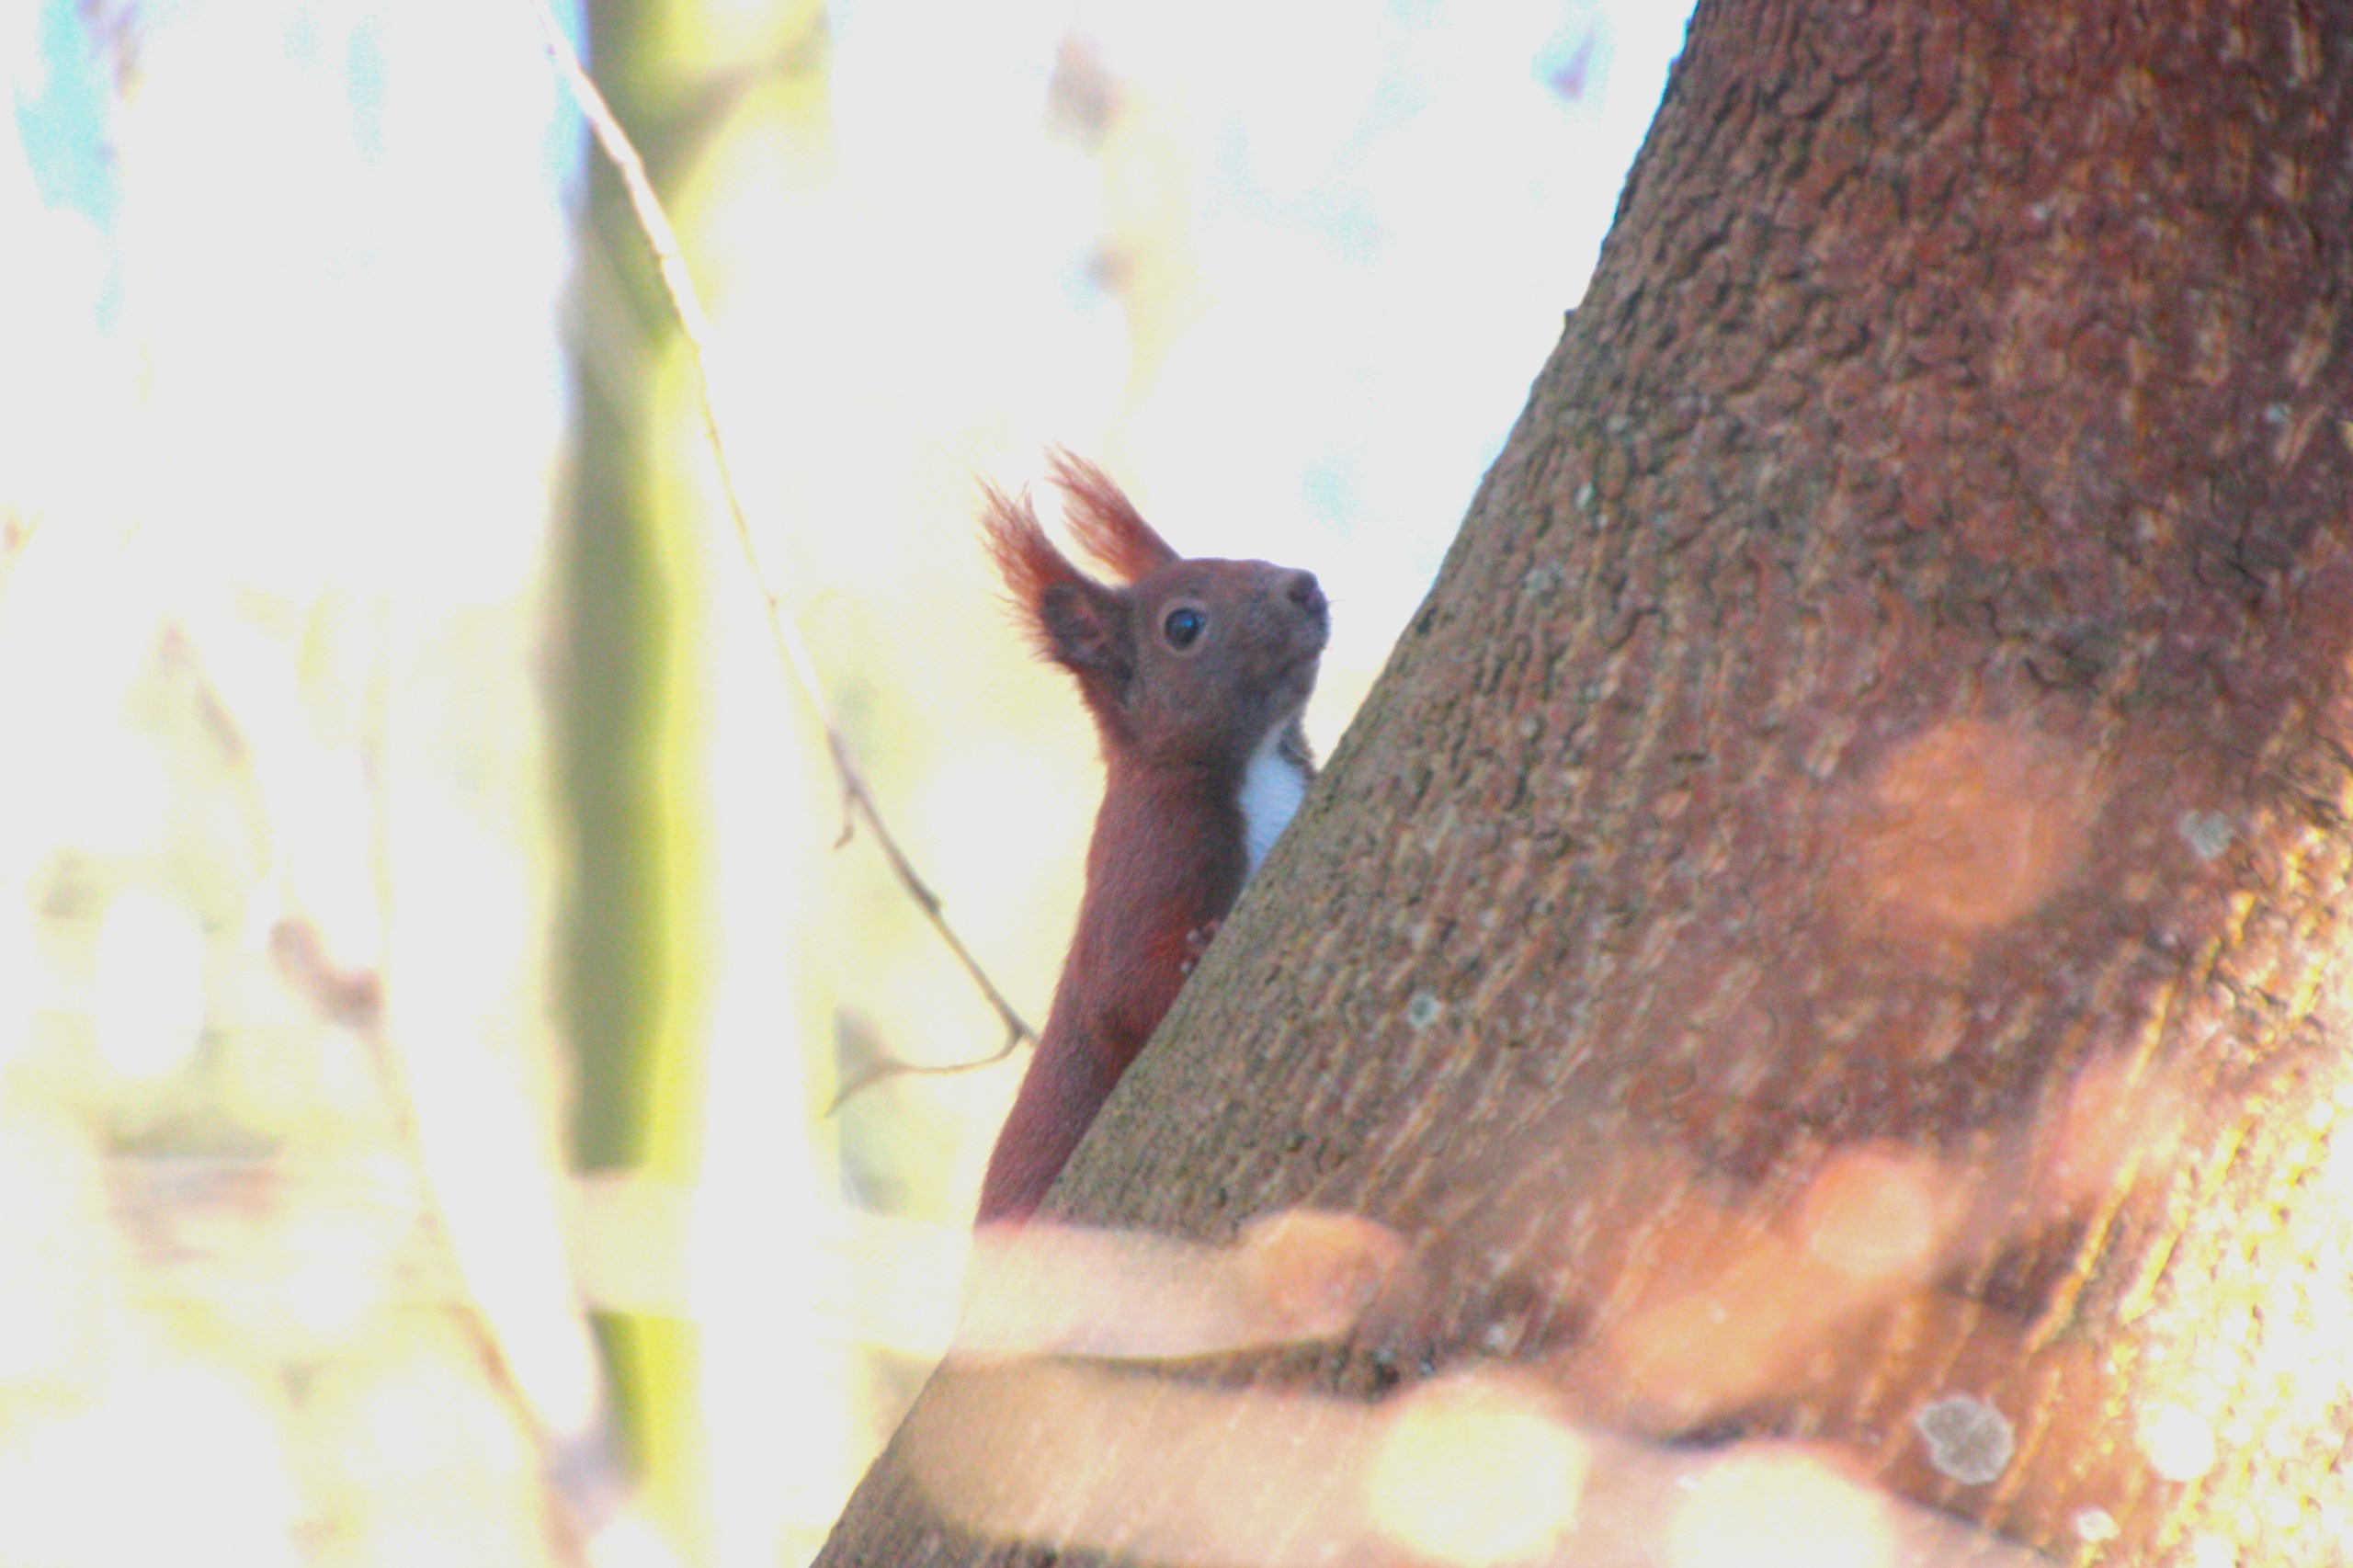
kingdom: Animalia
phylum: Chordata
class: Mammalia
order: Rodentia
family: Sciuridae
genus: Sciurus
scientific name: Sciurus vulgaris
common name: Egern
